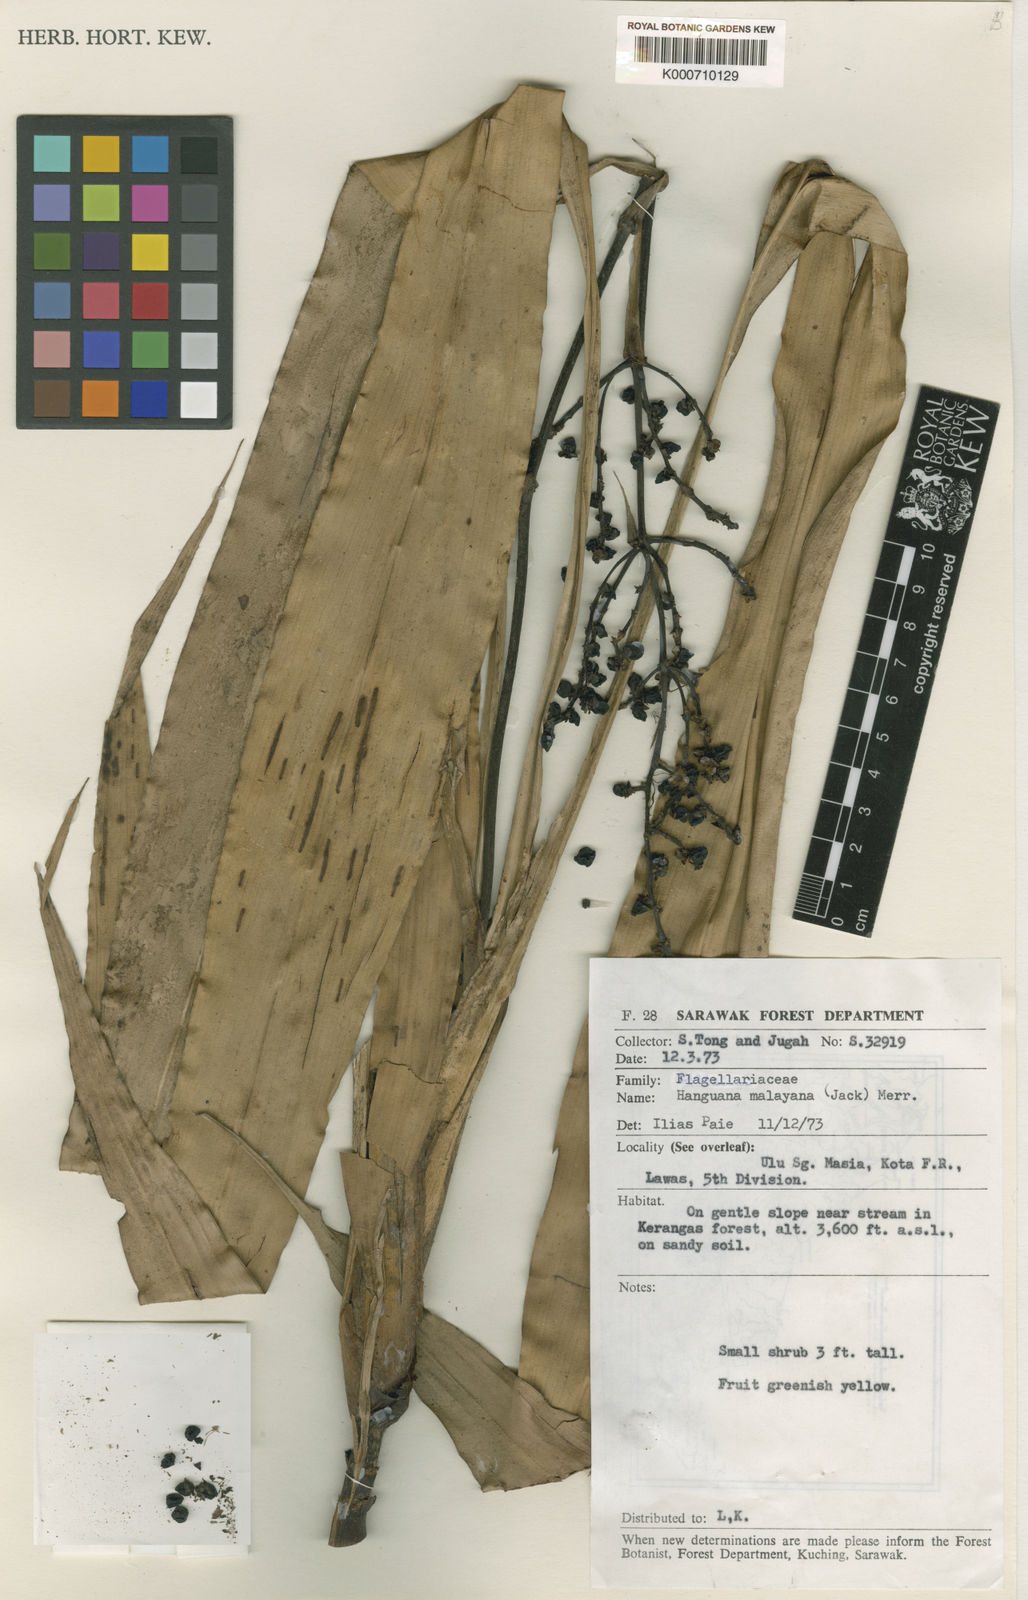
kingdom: Plantae
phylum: Tracheophyta
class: Liliopsida
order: Commelinales
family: Hanguanaceae
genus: Hanguana
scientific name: Hanguana malayana
